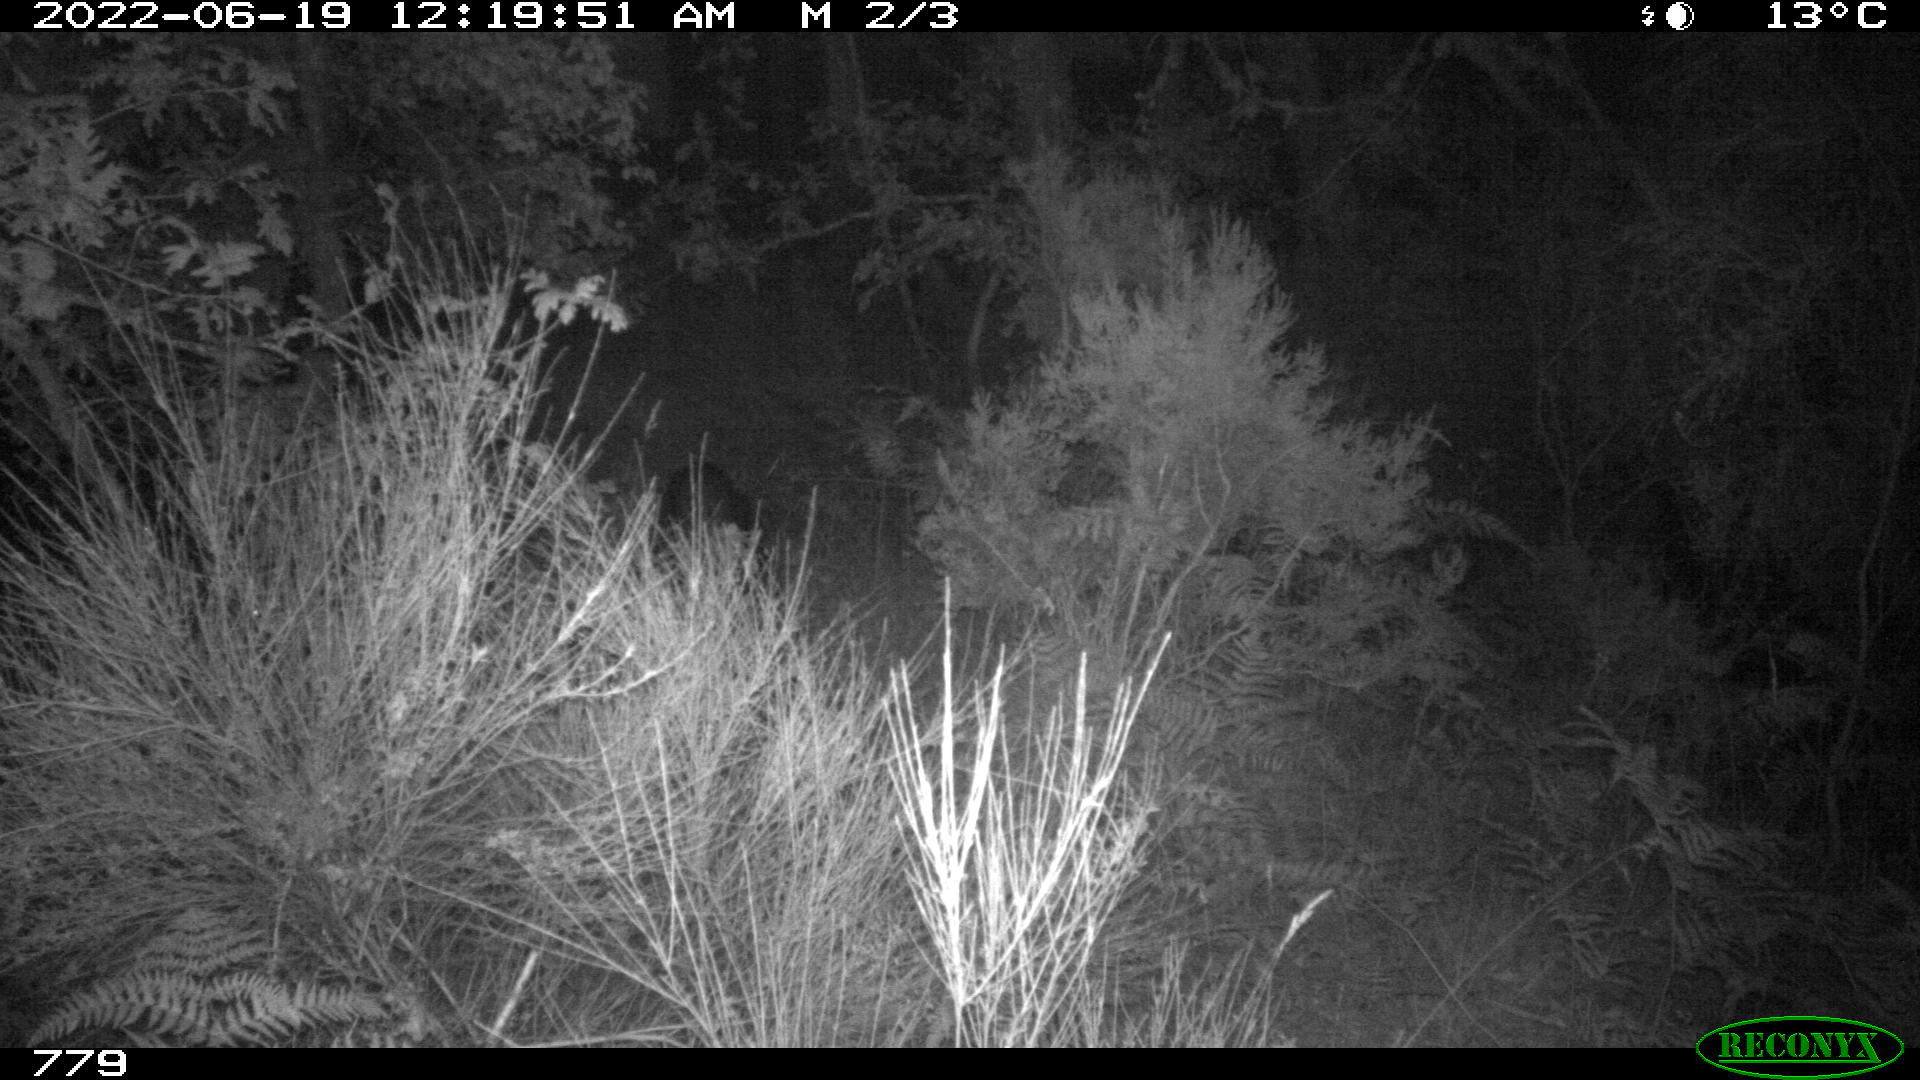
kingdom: Animalia
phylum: Chordata
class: Mammalia
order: Artiodactyla
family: Suidae
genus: Sus
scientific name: Sus scrofa
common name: Wild boar
